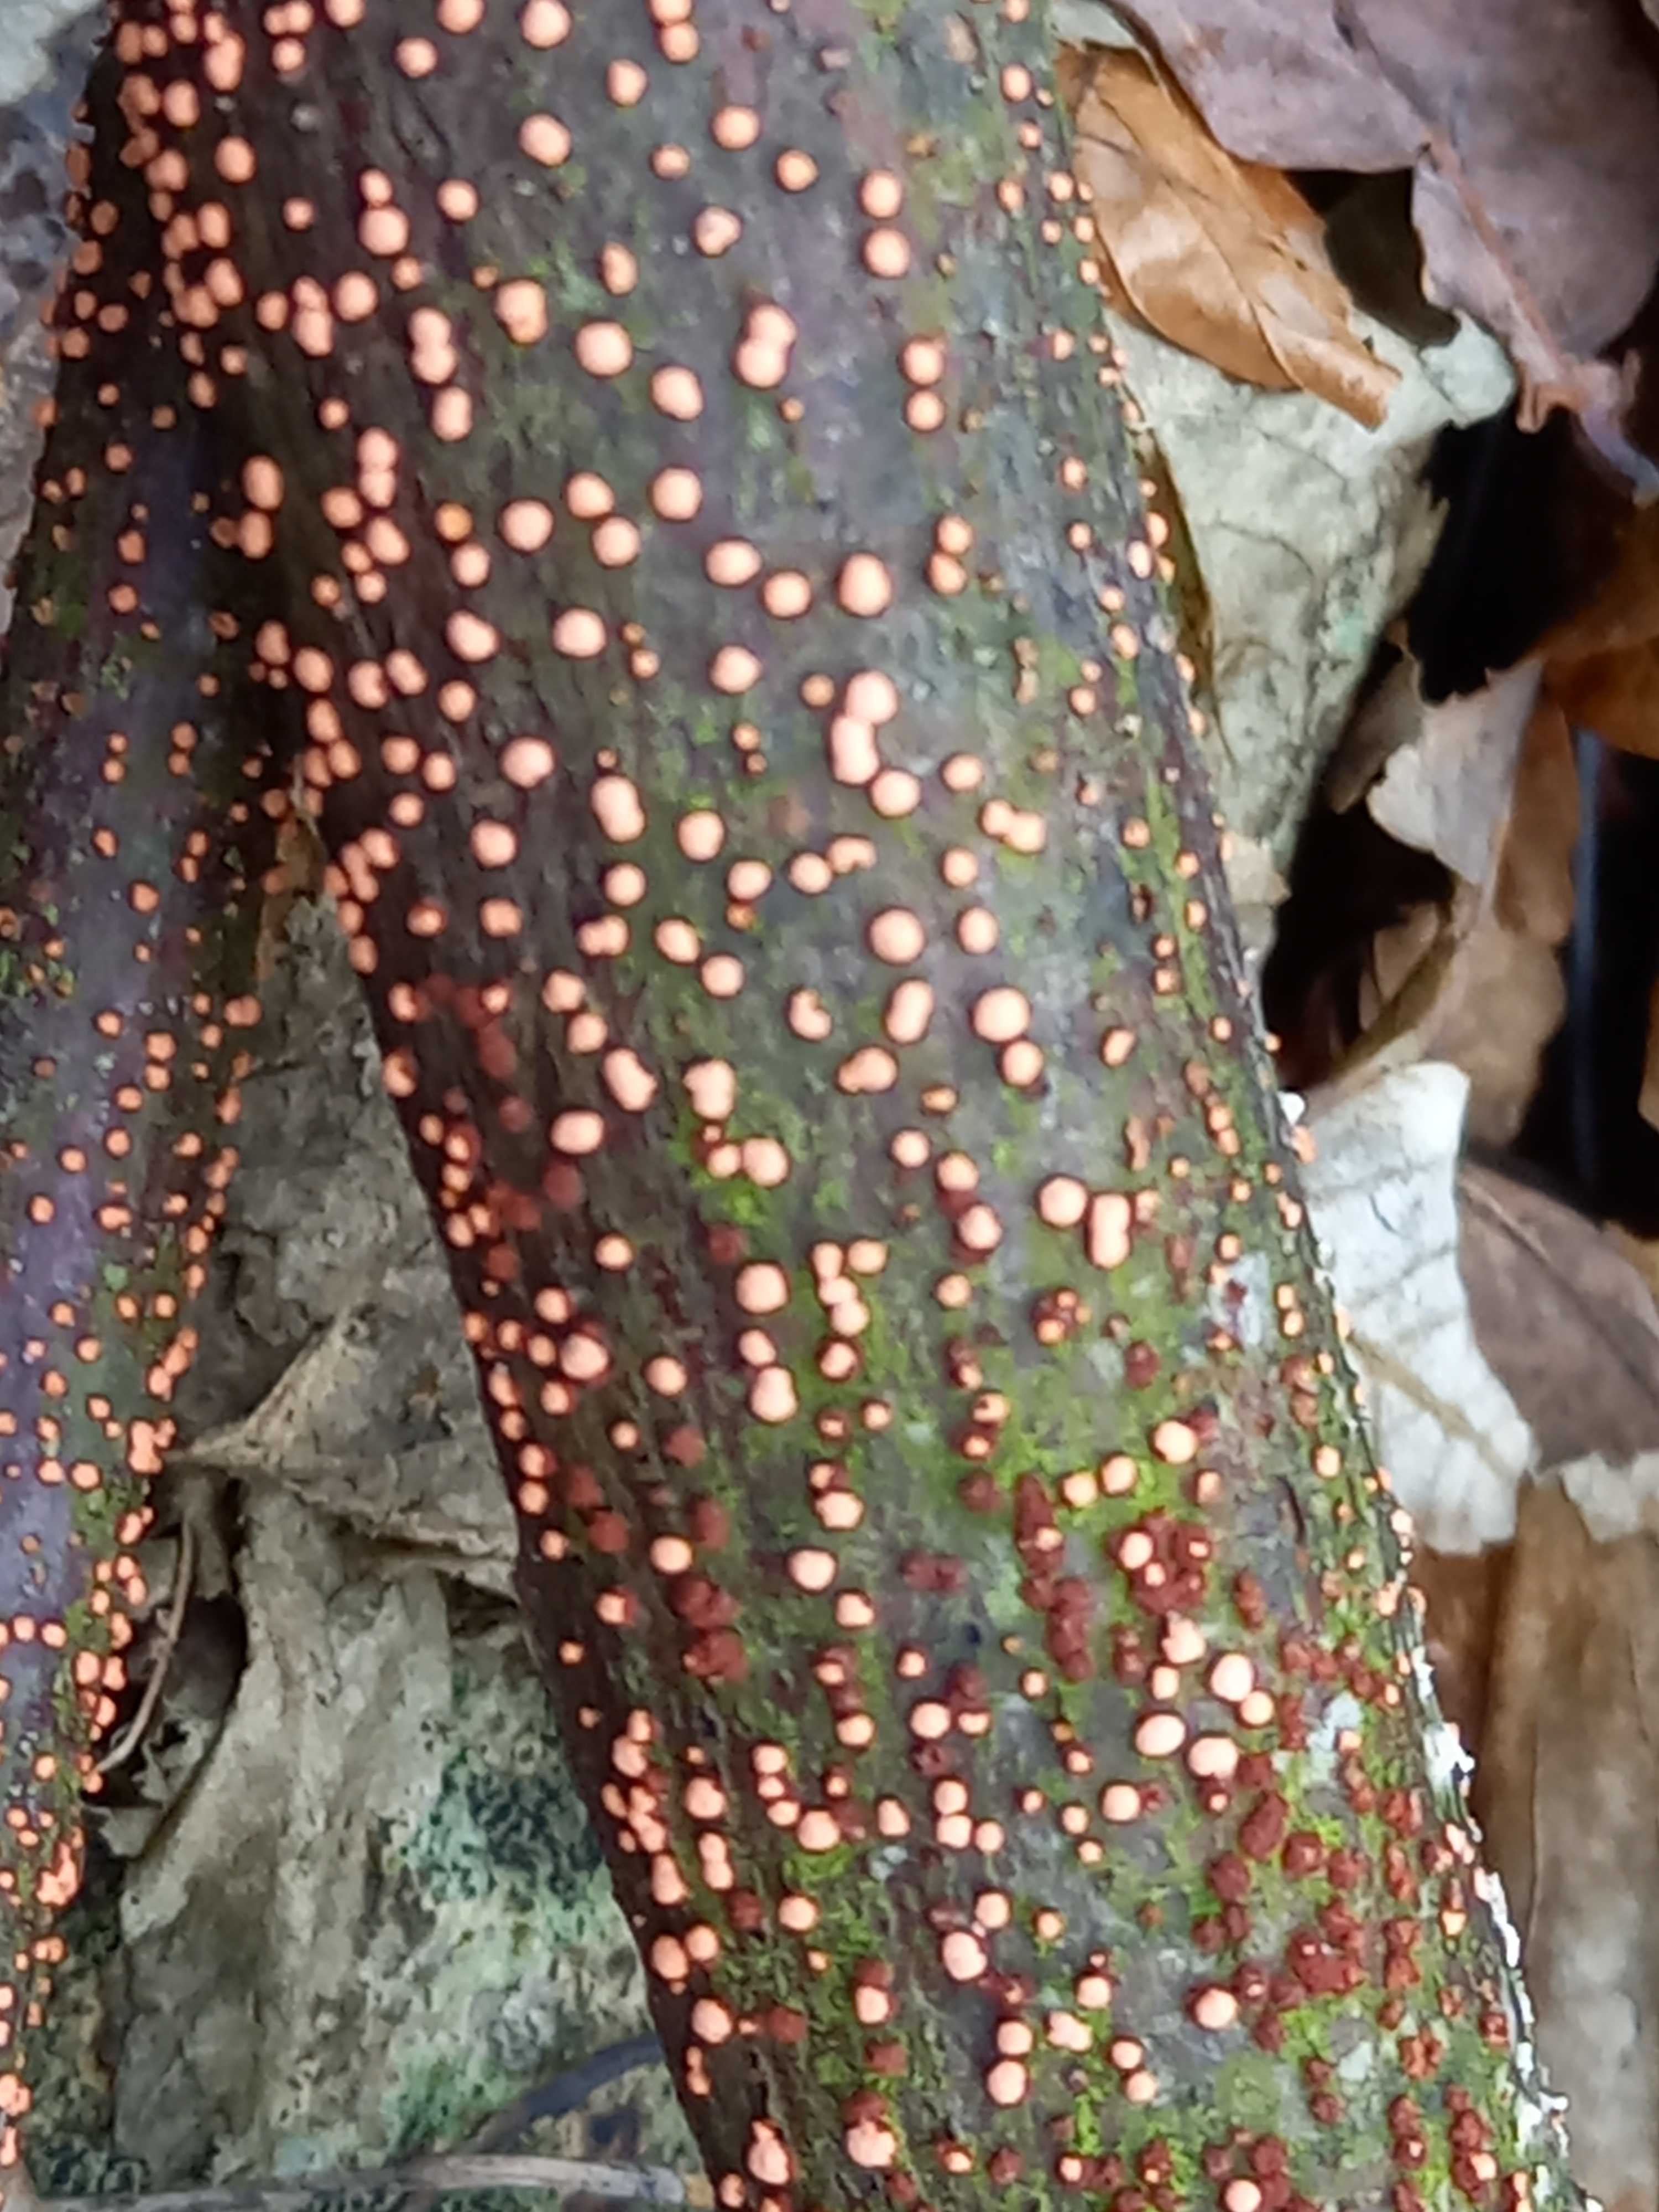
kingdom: Fungi
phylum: Ascomycota
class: Sordariomycetes
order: Hypocreales
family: Nectriaceae
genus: Nectria
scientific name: Nectria cinnabarina
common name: almindelig cinnobersvamp
